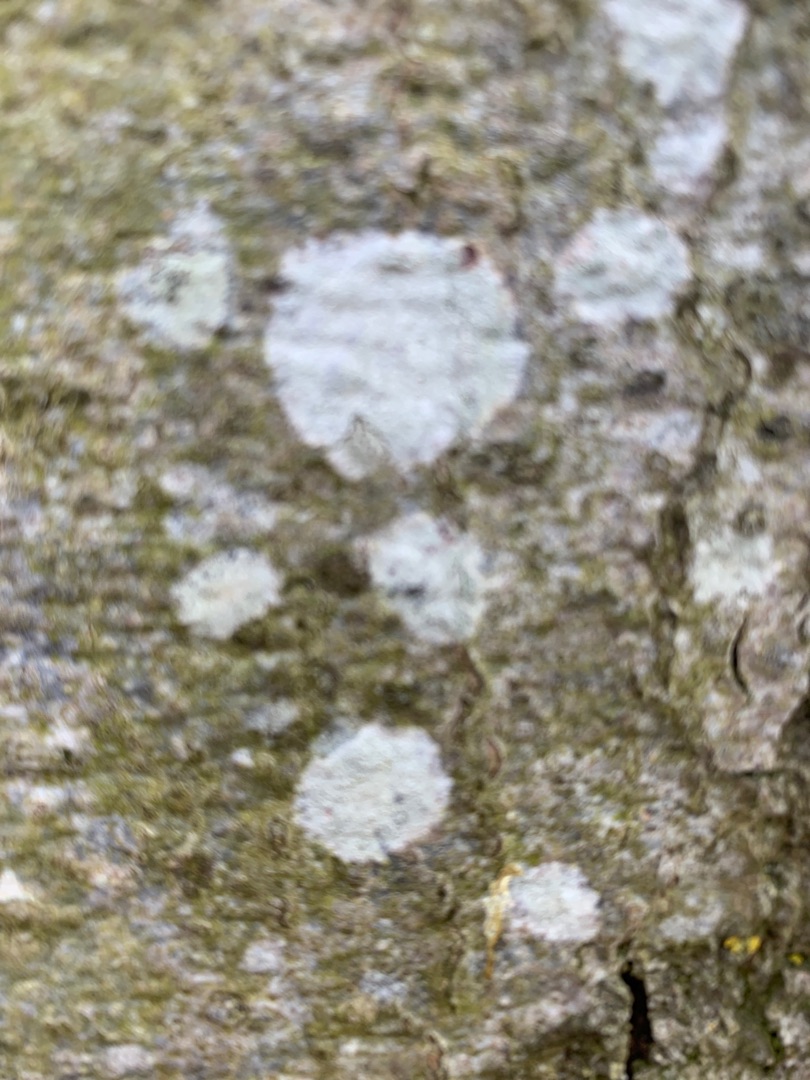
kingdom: Fungi
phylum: Ascomycota
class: Lecanoromycetes
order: Ostropales
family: Phlyctidaceae
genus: Phlyctis
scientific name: Phlyctis argena
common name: Almindelig sølvlav
